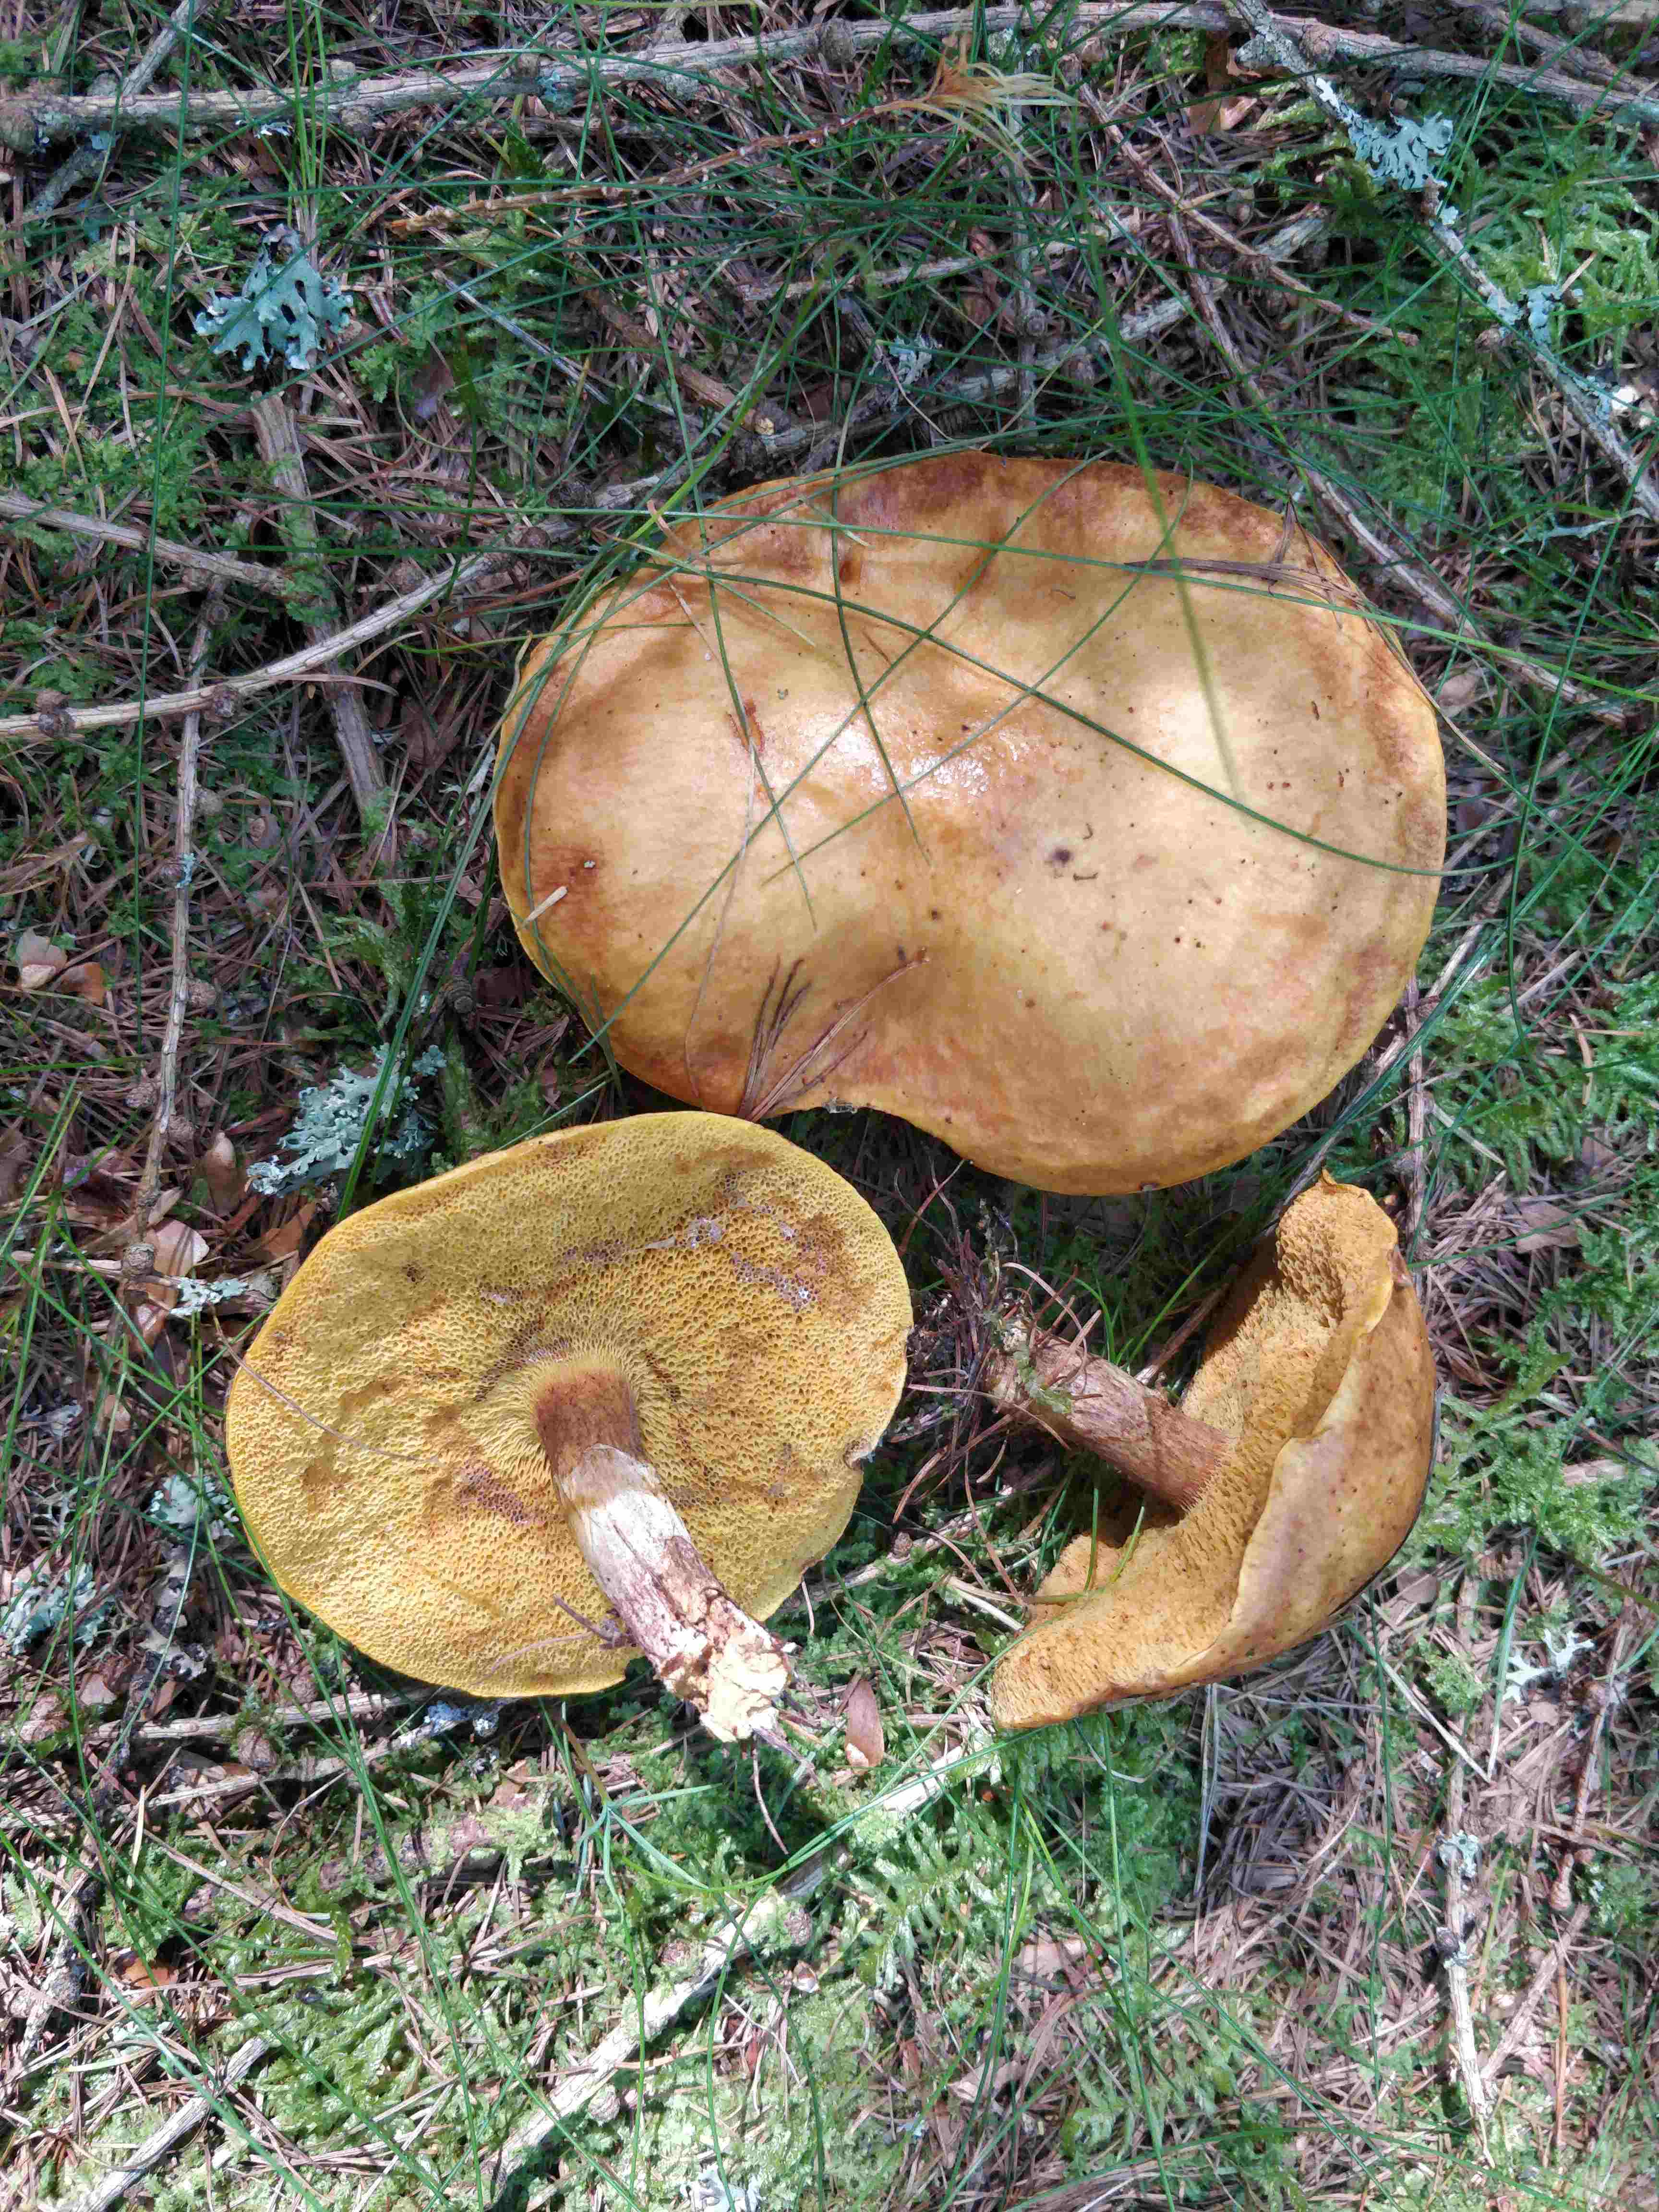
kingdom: Fungi
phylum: Basidiomycota
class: Agaricomycetes
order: Boletales
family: Suillaceae
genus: Suillus
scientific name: Suillus grevillei
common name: lærke-slimrørhat
